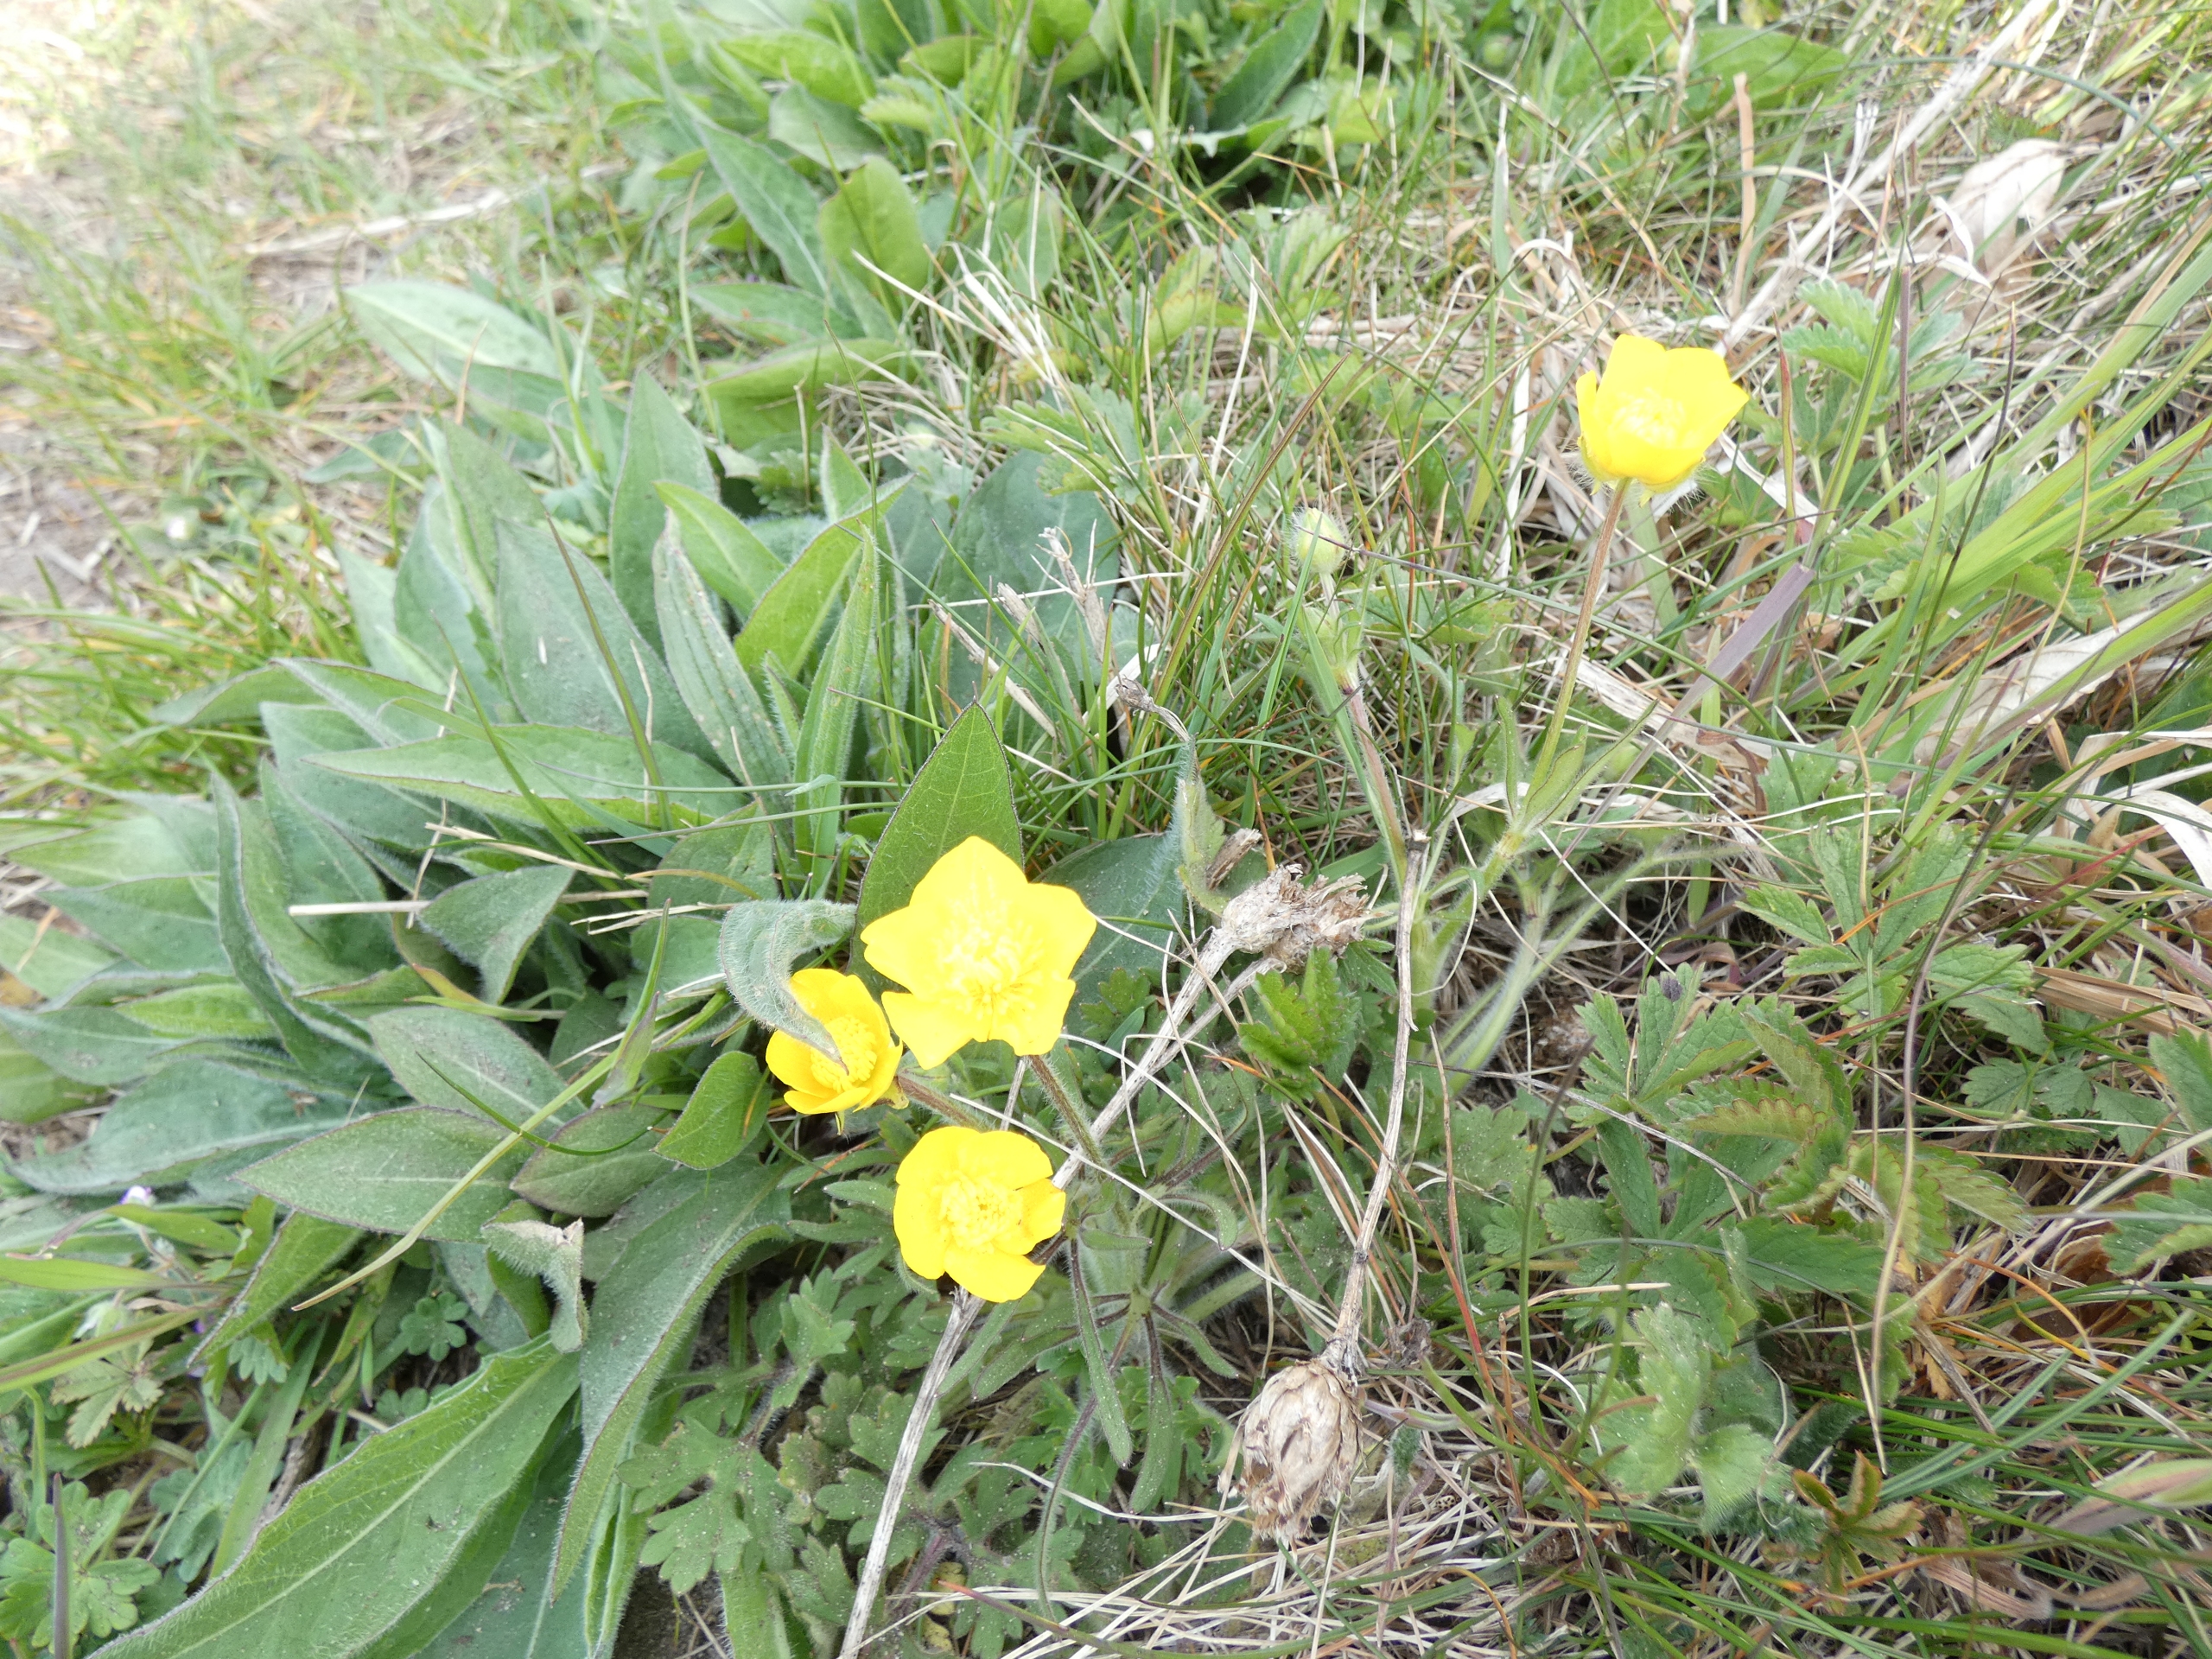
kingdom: Plantae
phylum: Tracheophyta
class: Magnoliopsida
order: Ranunculales
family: Ranunculaceae
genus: Ranunculus
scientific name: Ranunculus bulbosus
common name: Knold-ranunkel
